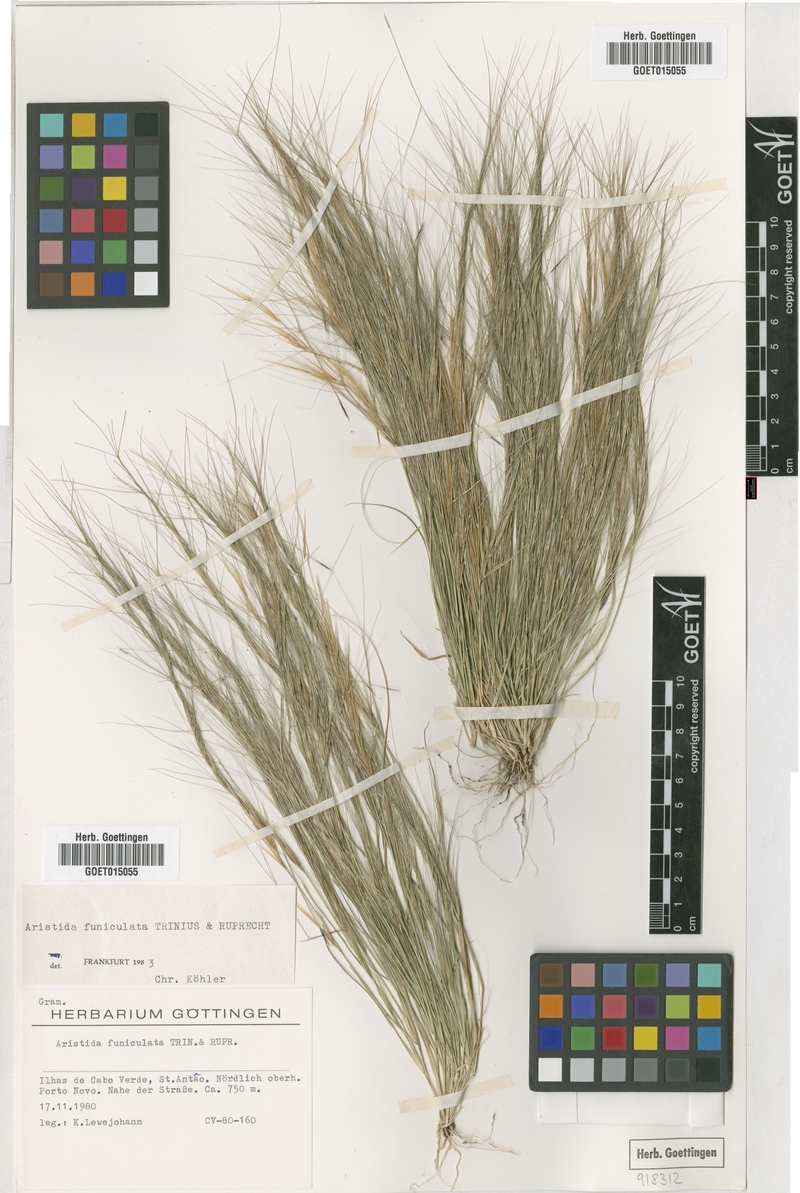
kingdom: Plantae
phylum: Tracheophyta
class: Liliopsida
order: Poales
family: Poaceae
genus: Aristida
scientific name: Aristida funiculata
